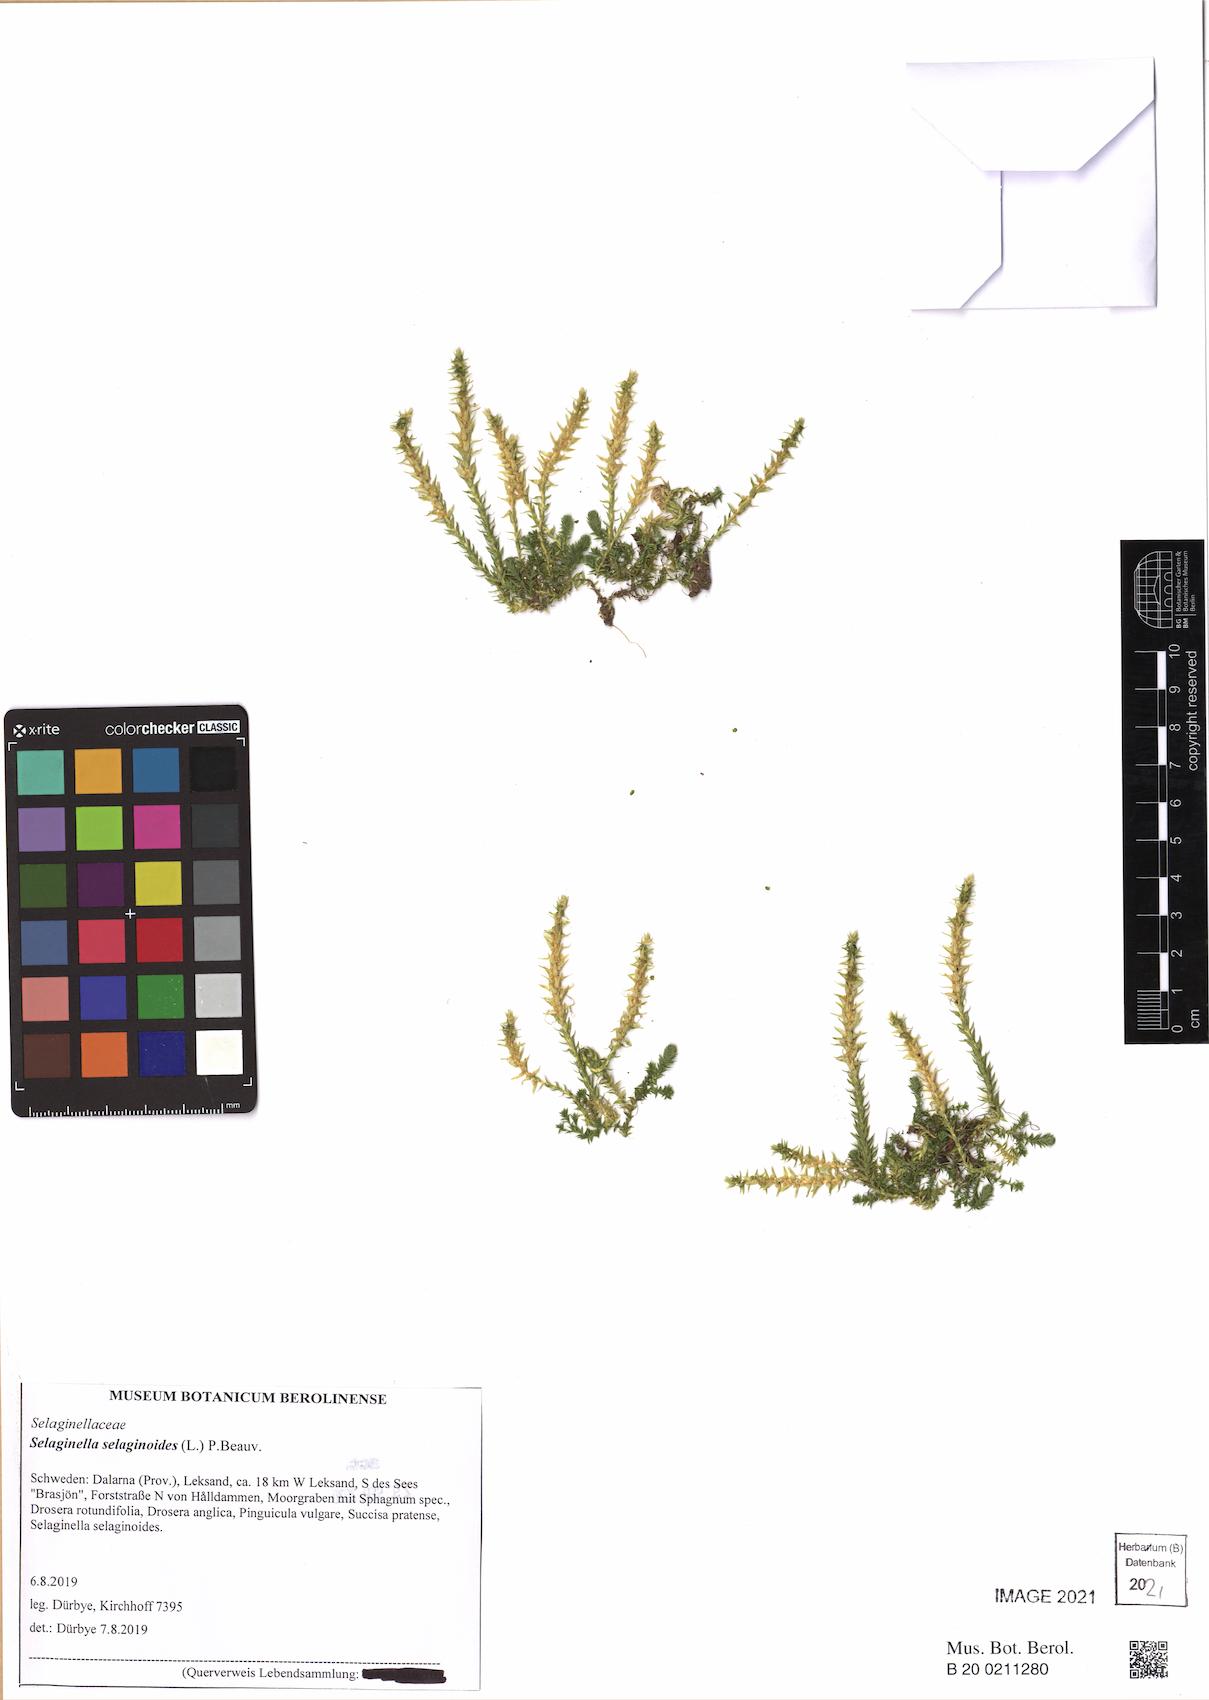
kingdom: Plantae
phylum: Tracheophyta
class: Lycopodiopsida
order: Selaginellales
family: Selaginellaceae
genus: Selaginella
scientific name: Selaginella selaginoides
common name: Prickly mountain-moss
